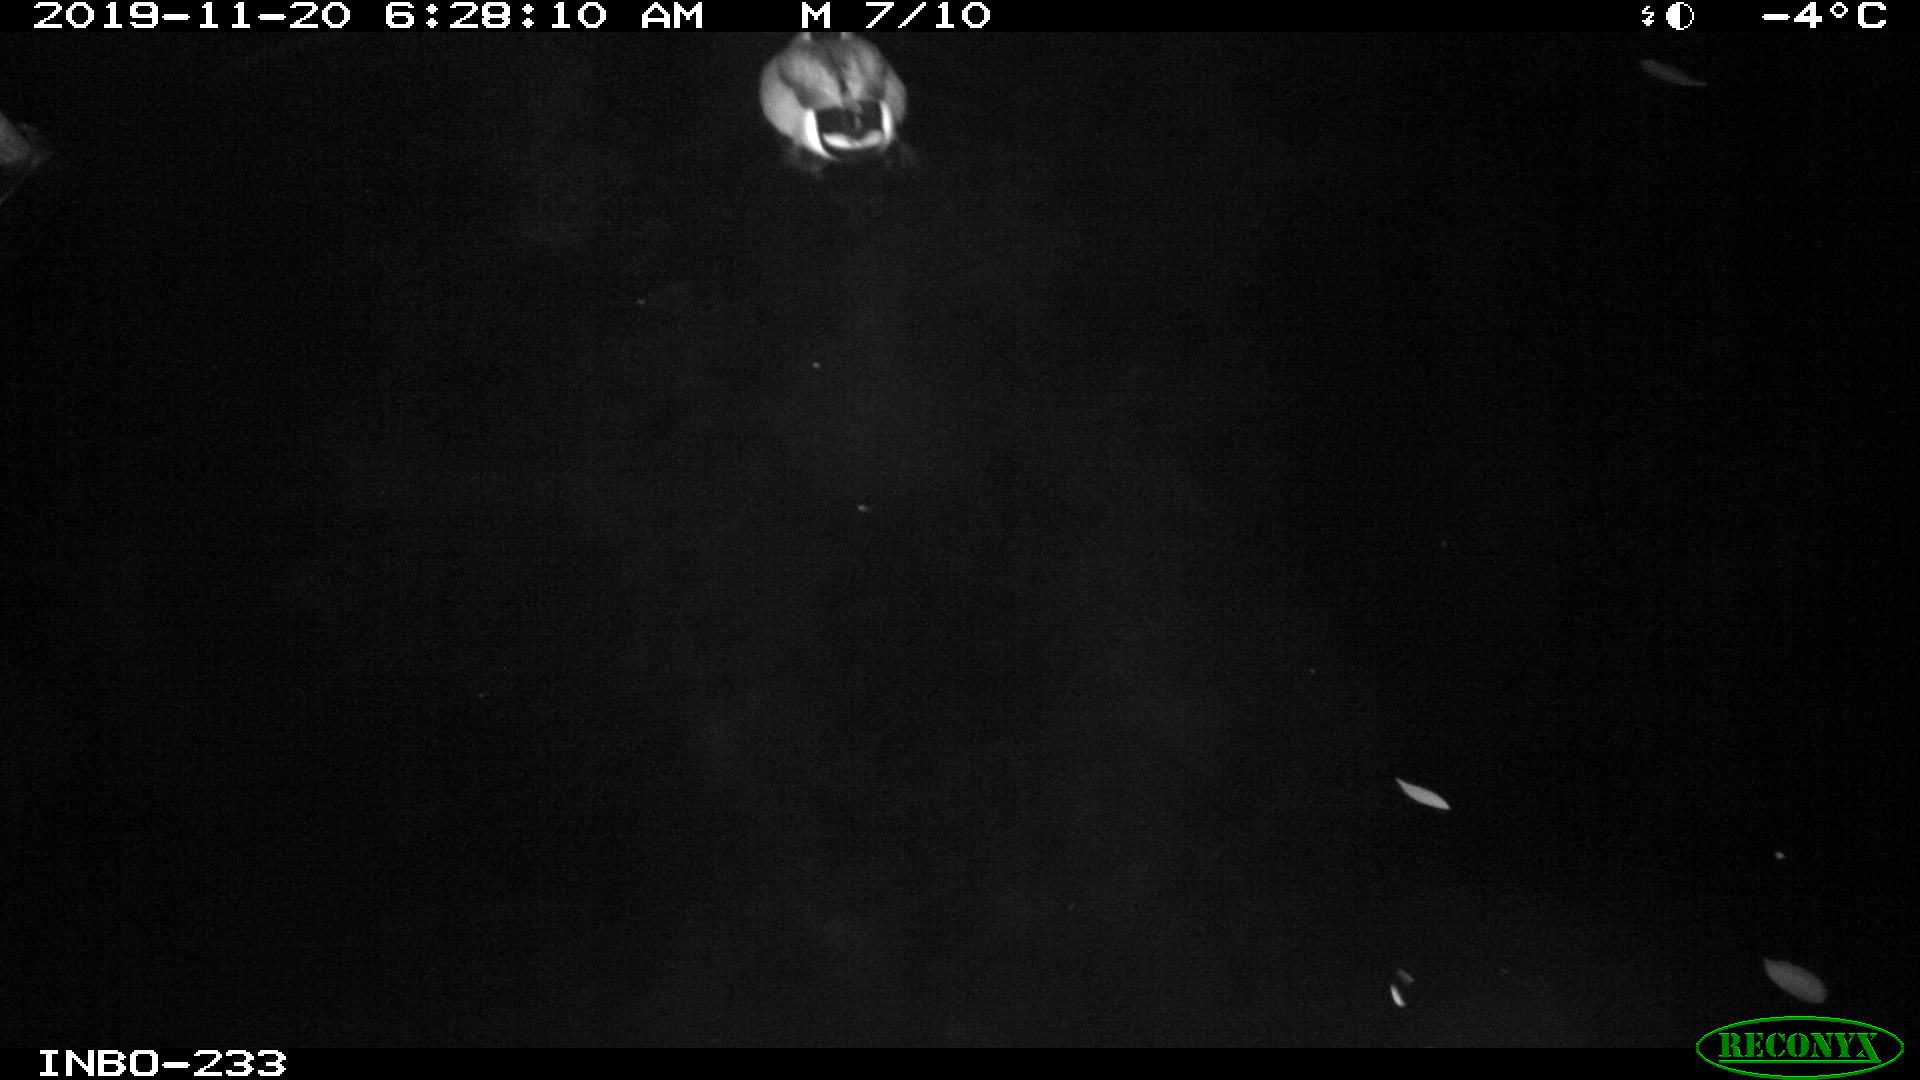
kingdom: Animalia
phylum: Chordata
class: Aves
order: Anseriformes
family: Anatidae
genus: Anas
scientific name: Anas platyrhynchos
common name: Mallard
